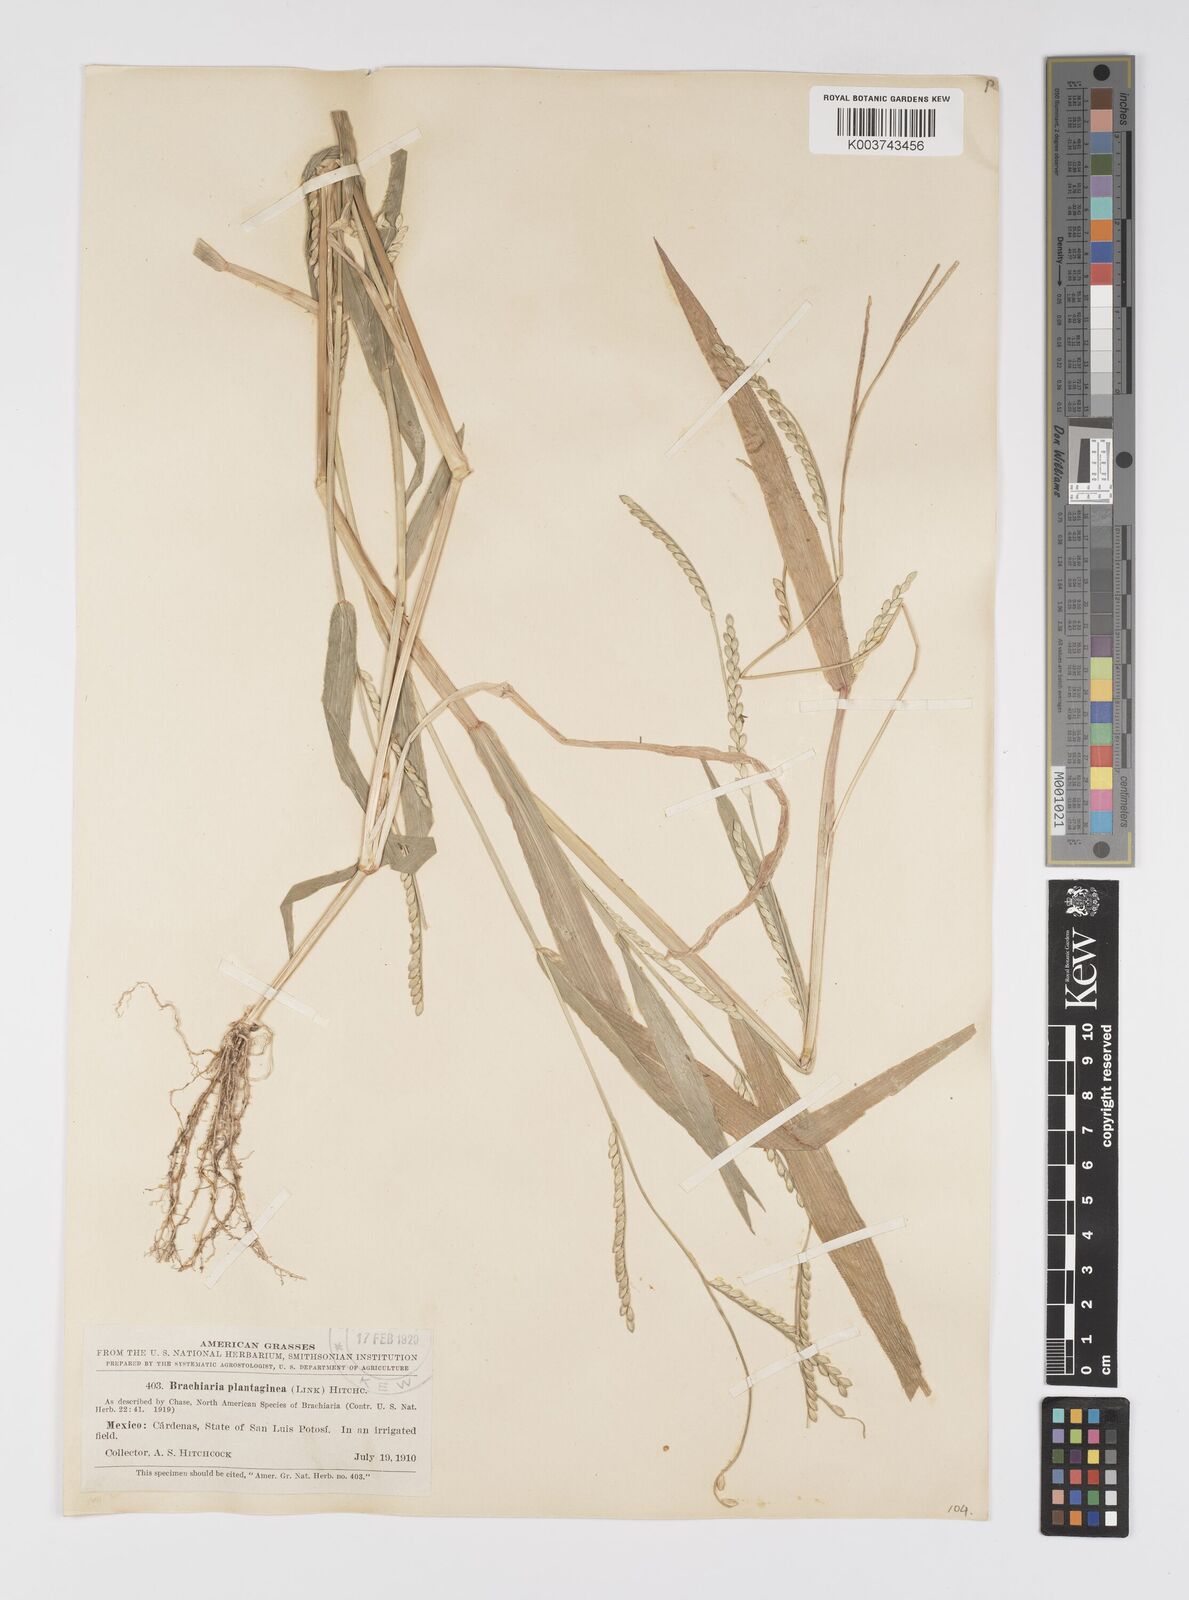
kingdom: Plantae
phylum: Tracheophyta
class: Liliopsida
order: Poales
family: Poaceae
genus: Urochloa
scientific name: Urochloa plantaginea
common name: Plantain signalgrass
